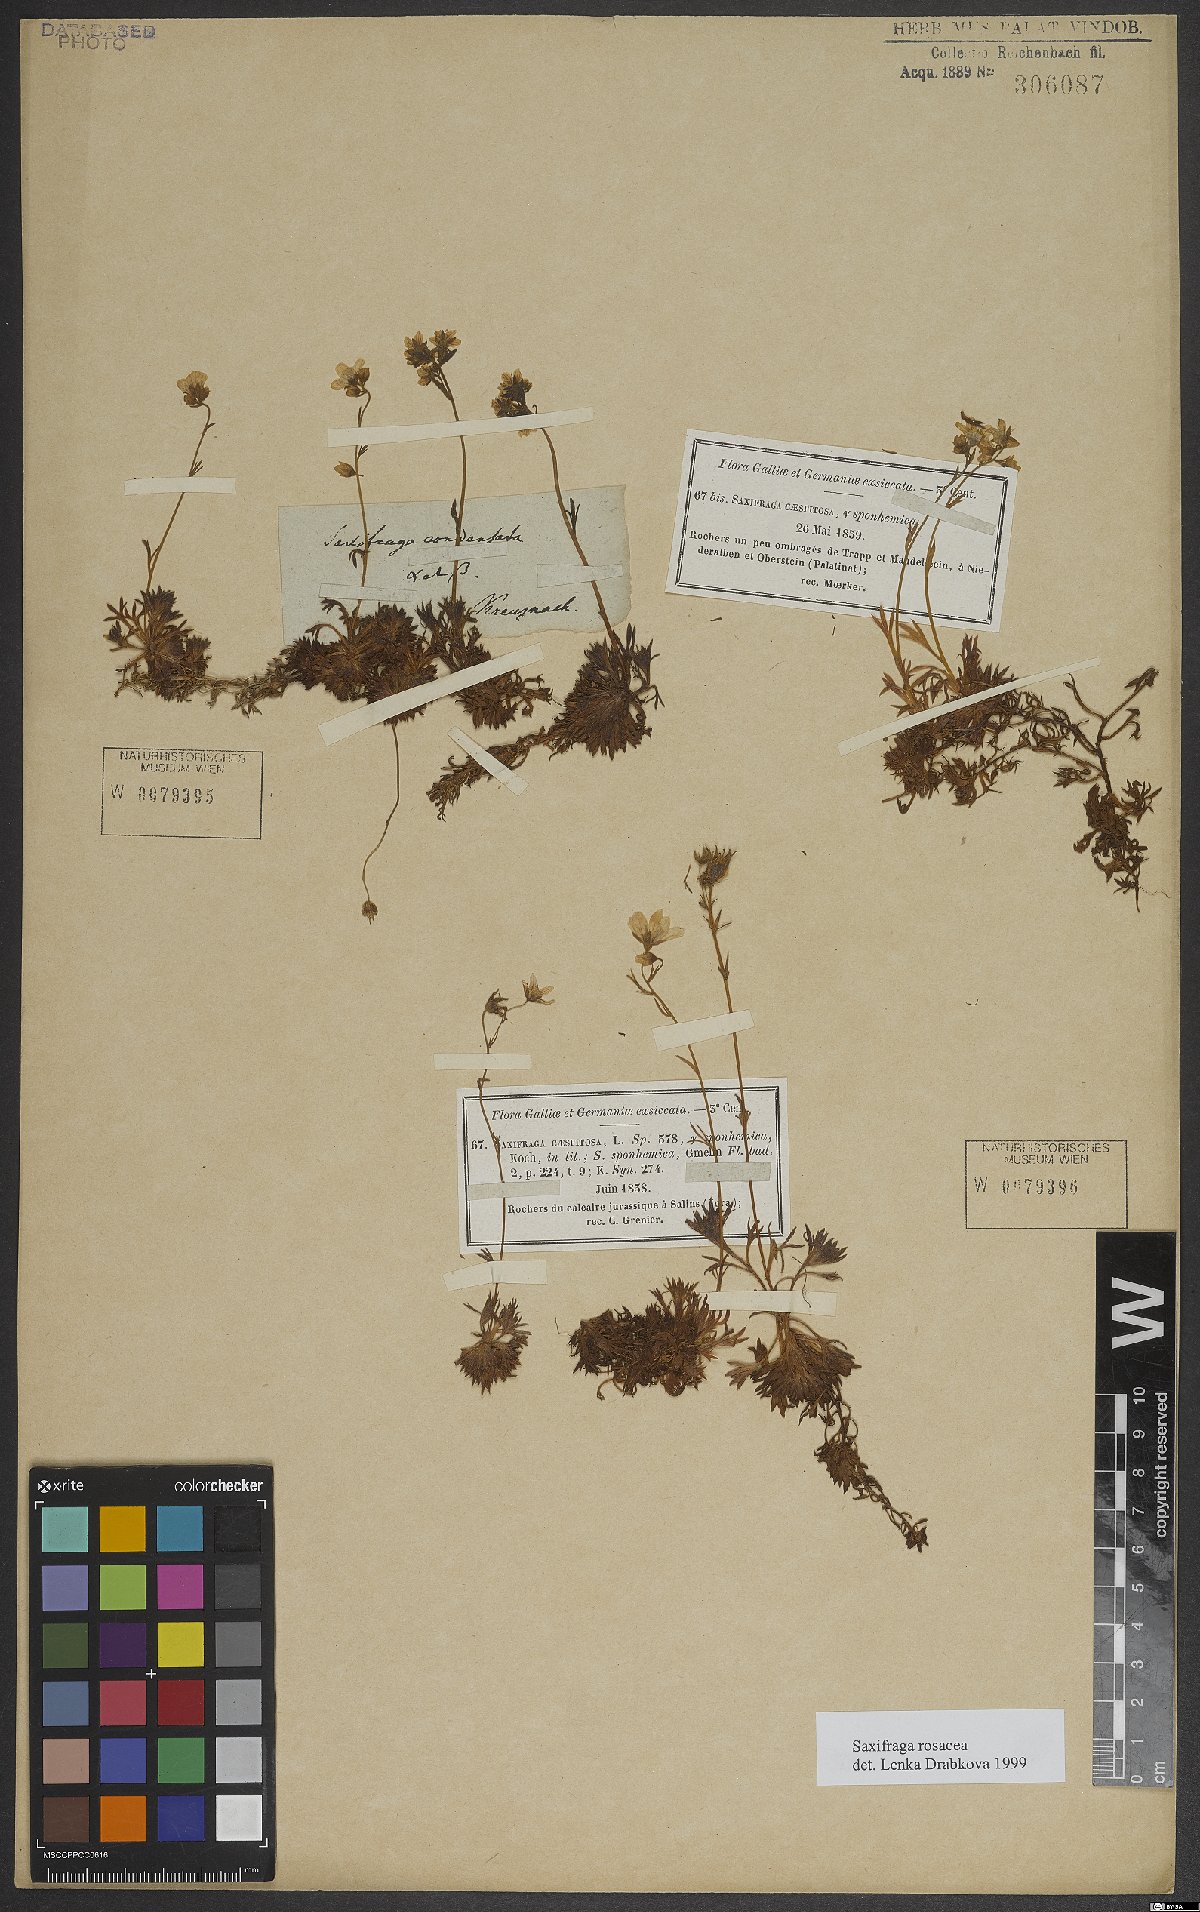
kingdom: Plantae
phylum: Tracheophyta
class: Magnoliopsida
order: Saxifragales
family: Saxifragaceae
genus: Saxifraga
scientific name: Saxifraga rosacea
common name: Irish saxifrage
